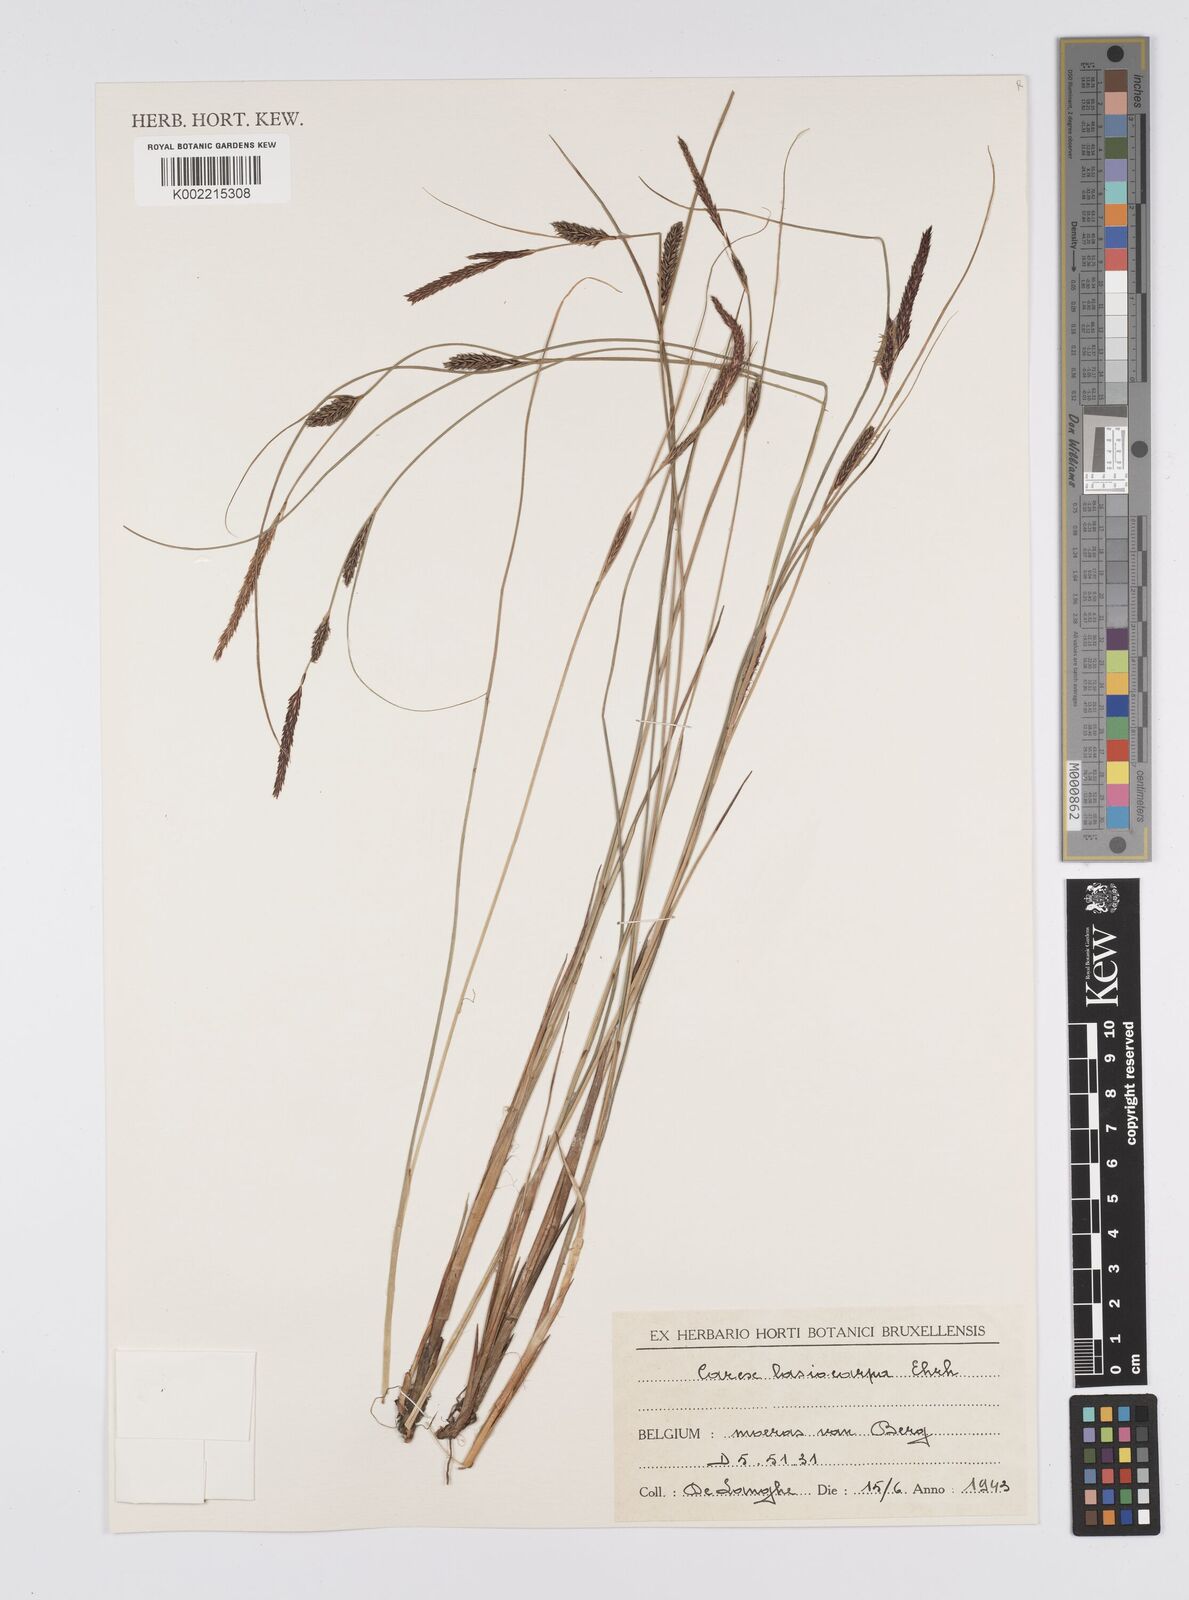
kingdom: Plantae
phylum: Tracheophyta
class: Liliopsida
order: Poales
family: Cyperaceae
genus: Carex
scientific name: Carex lasiocarpa
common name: Slender sedge
